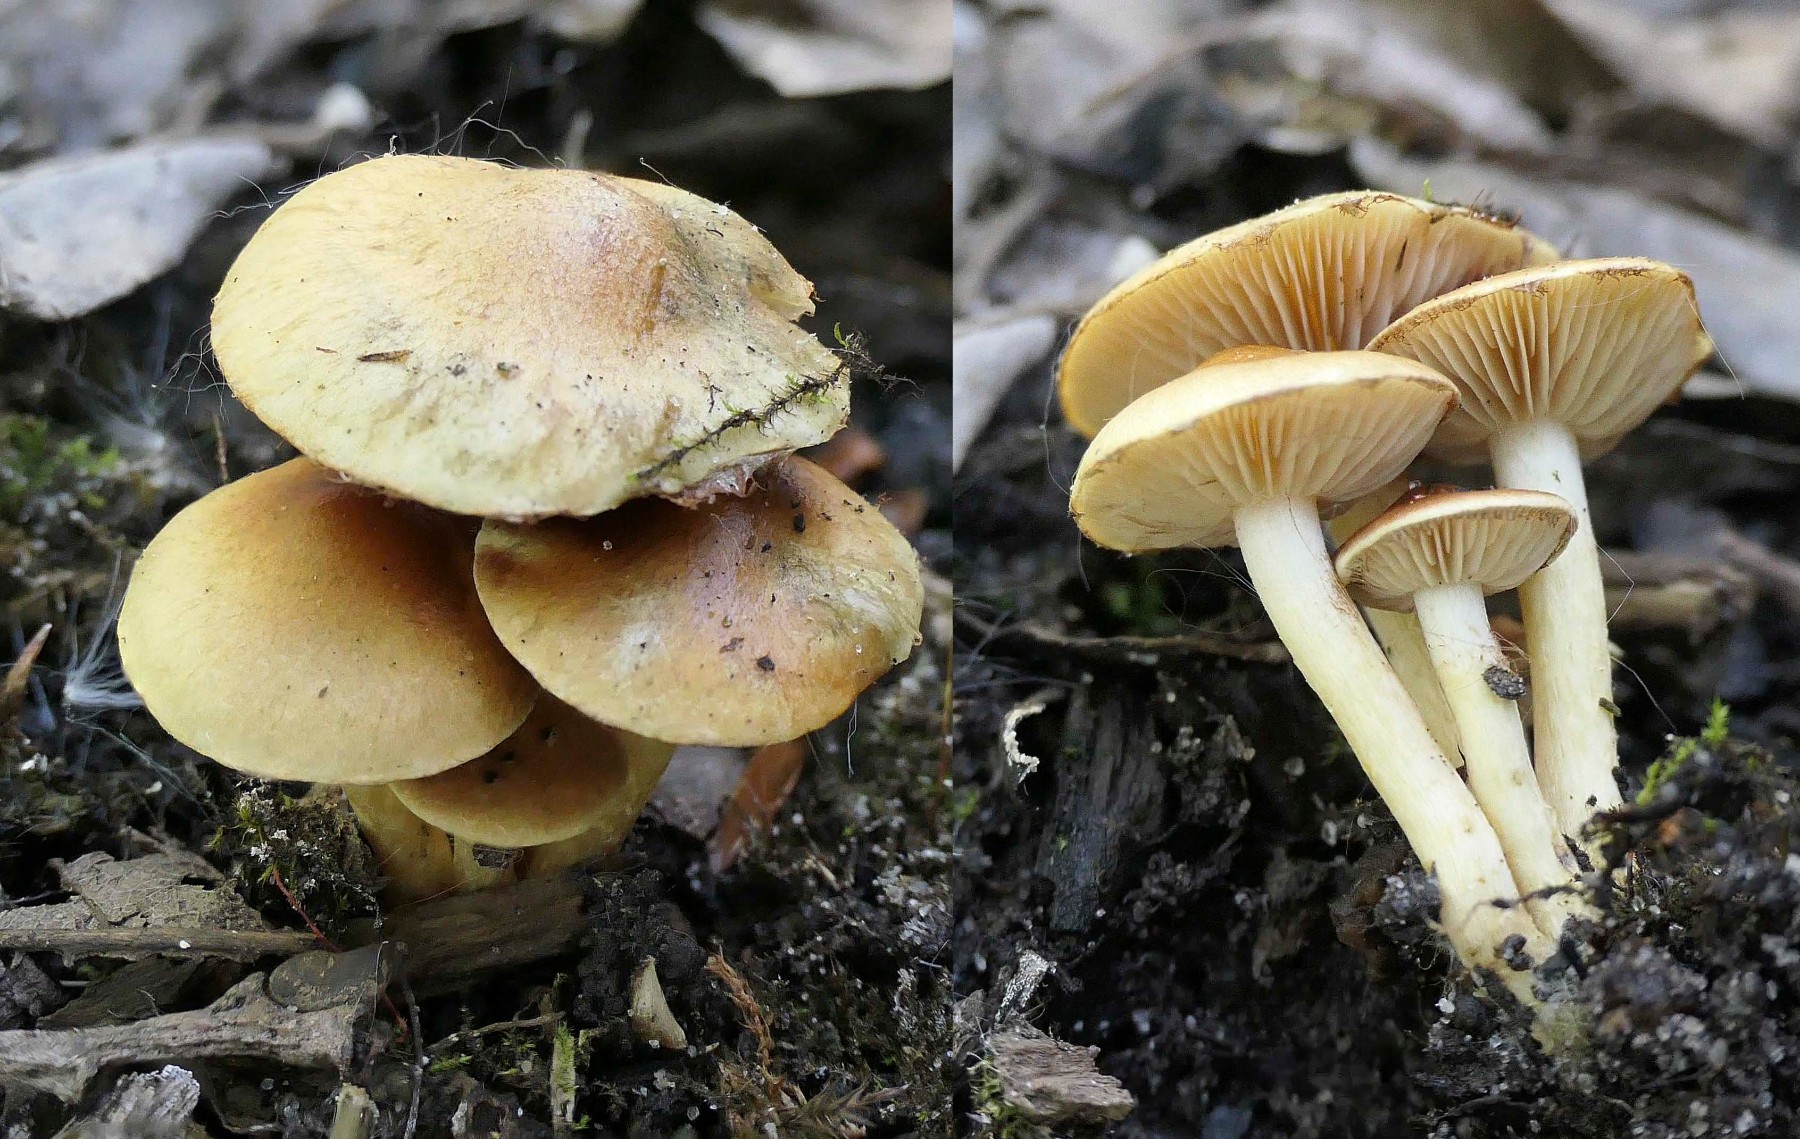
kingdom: Fungi
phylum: Basidiomycota
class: Agaricomycetes
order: Agaricales
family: Strophariaceae
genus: Pholiota
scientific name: Pholiota conissans
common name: pile-skælhat
